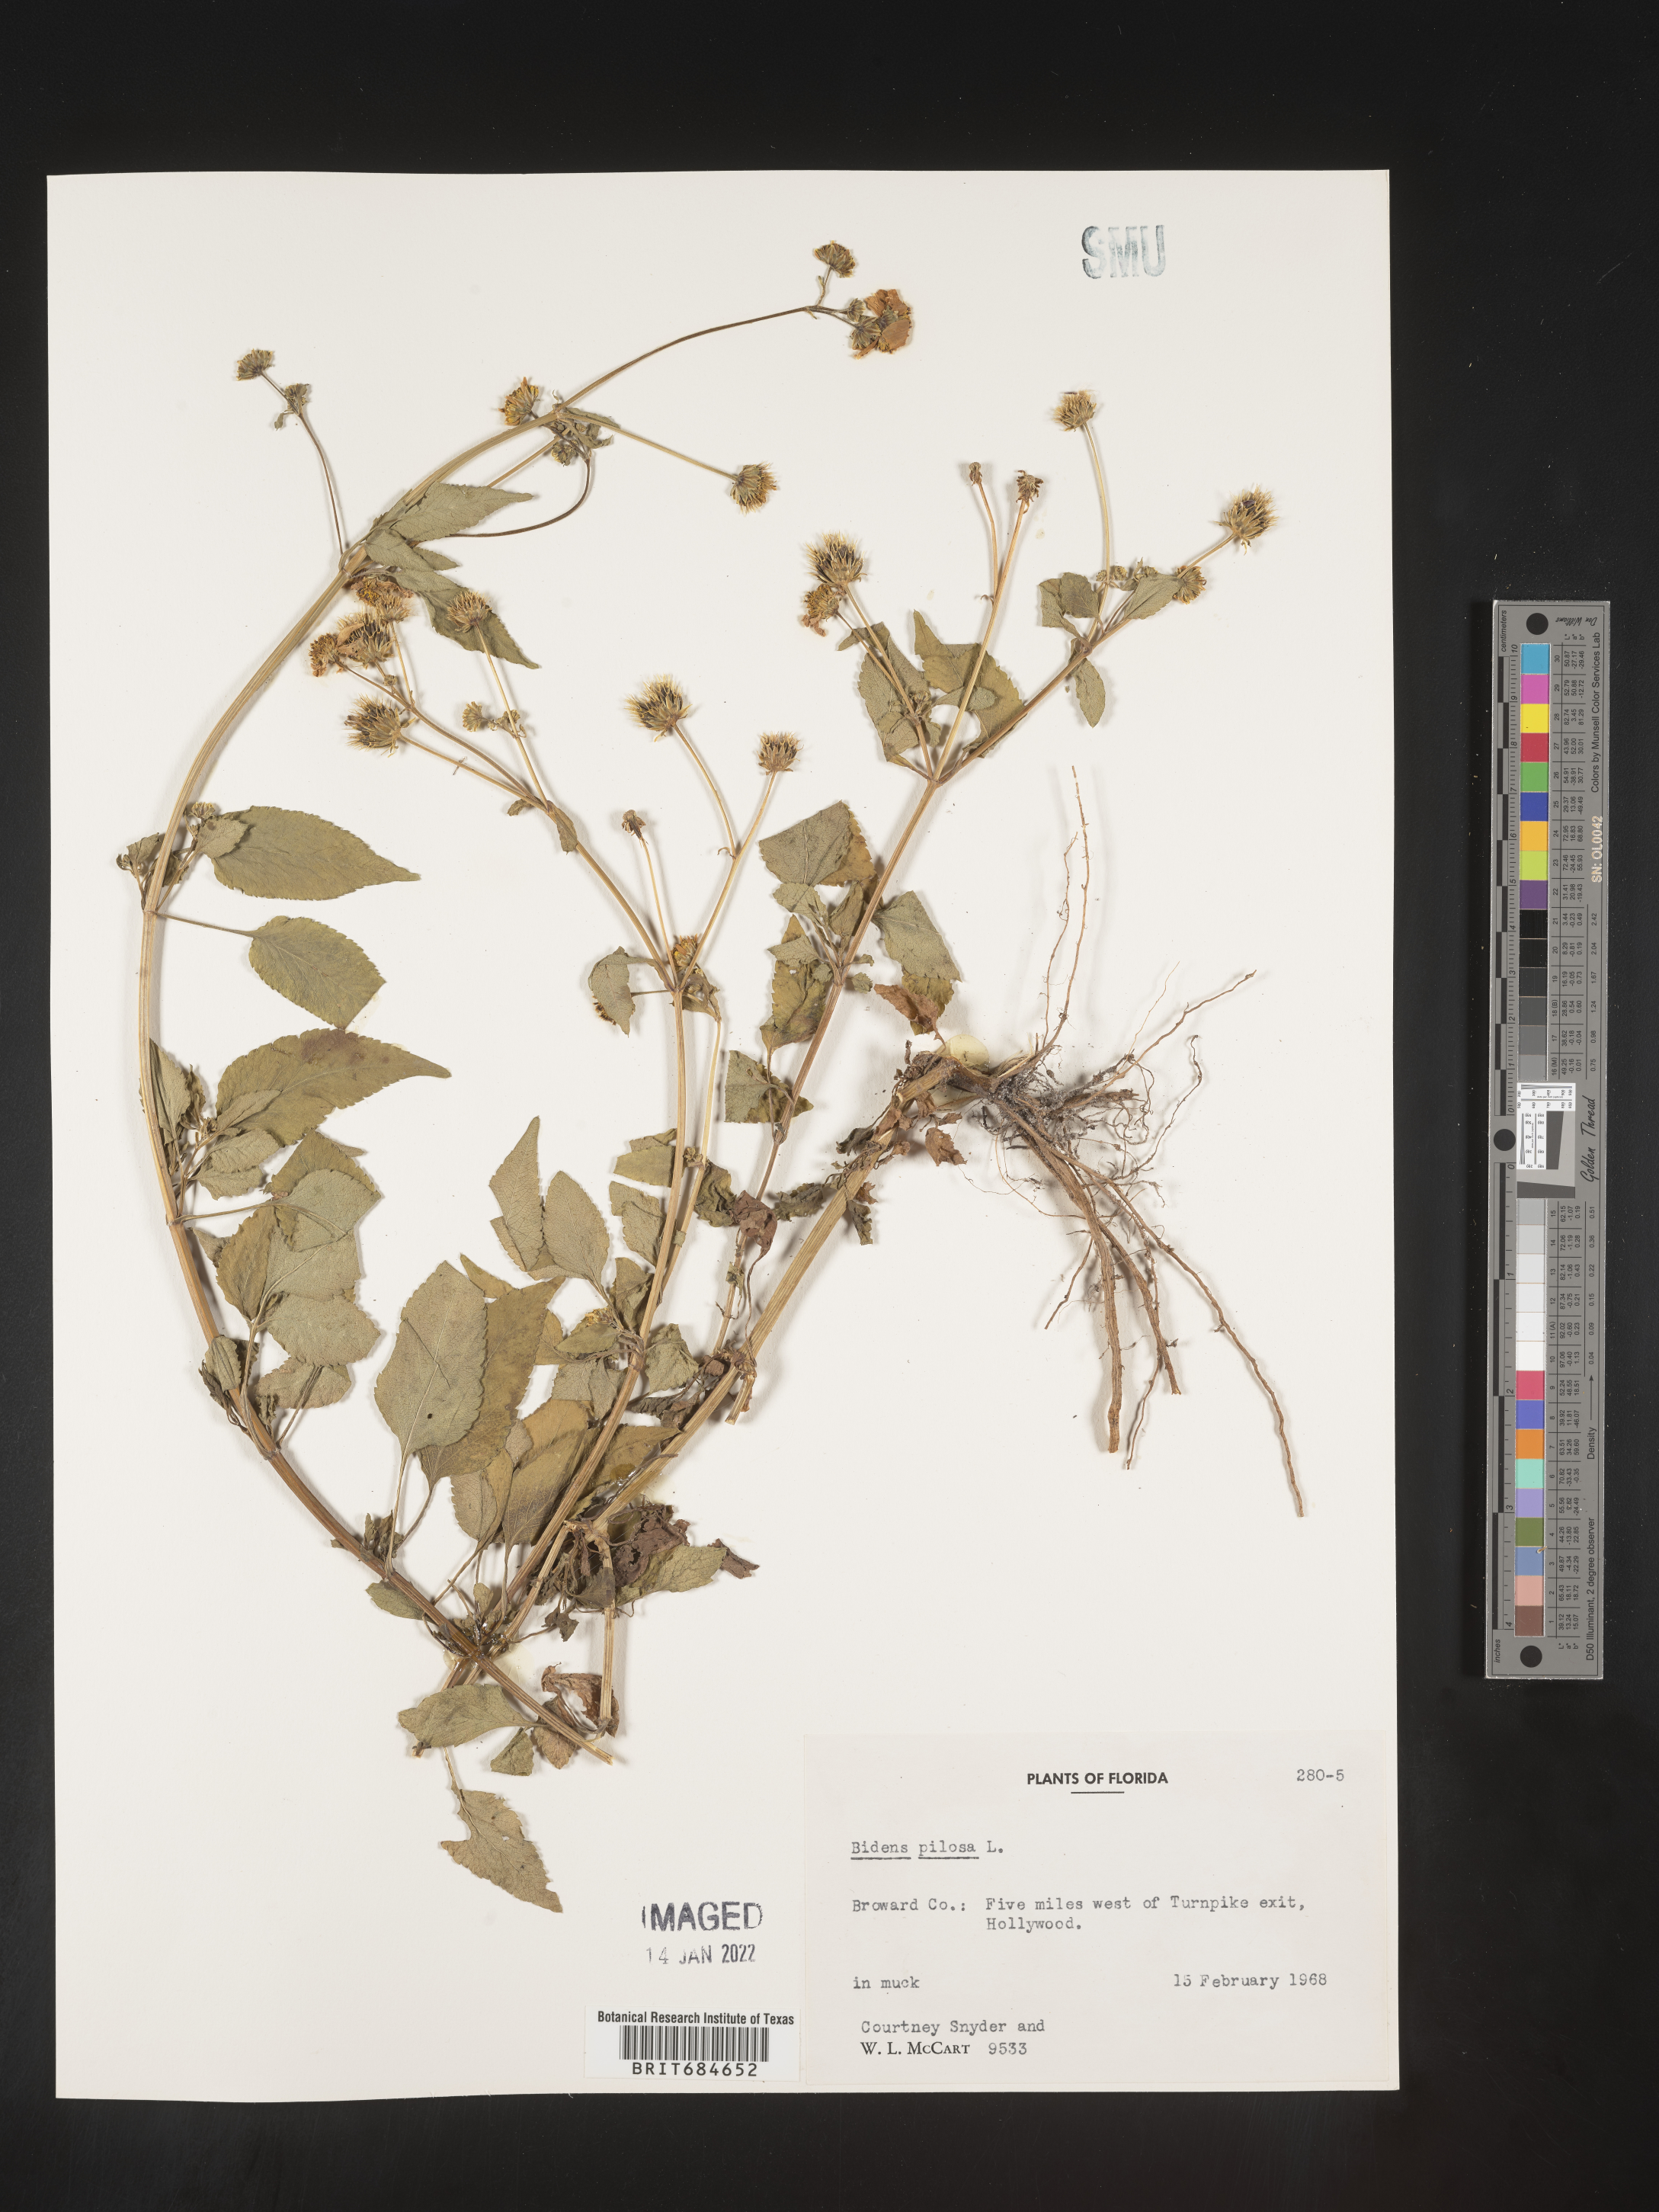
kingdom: Plantae
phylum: Tracheophyta
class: Magnoliopsida
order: Asterales
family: Asteraceae
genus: Bidens
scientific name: Bidens pilosa
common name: Black-jack
